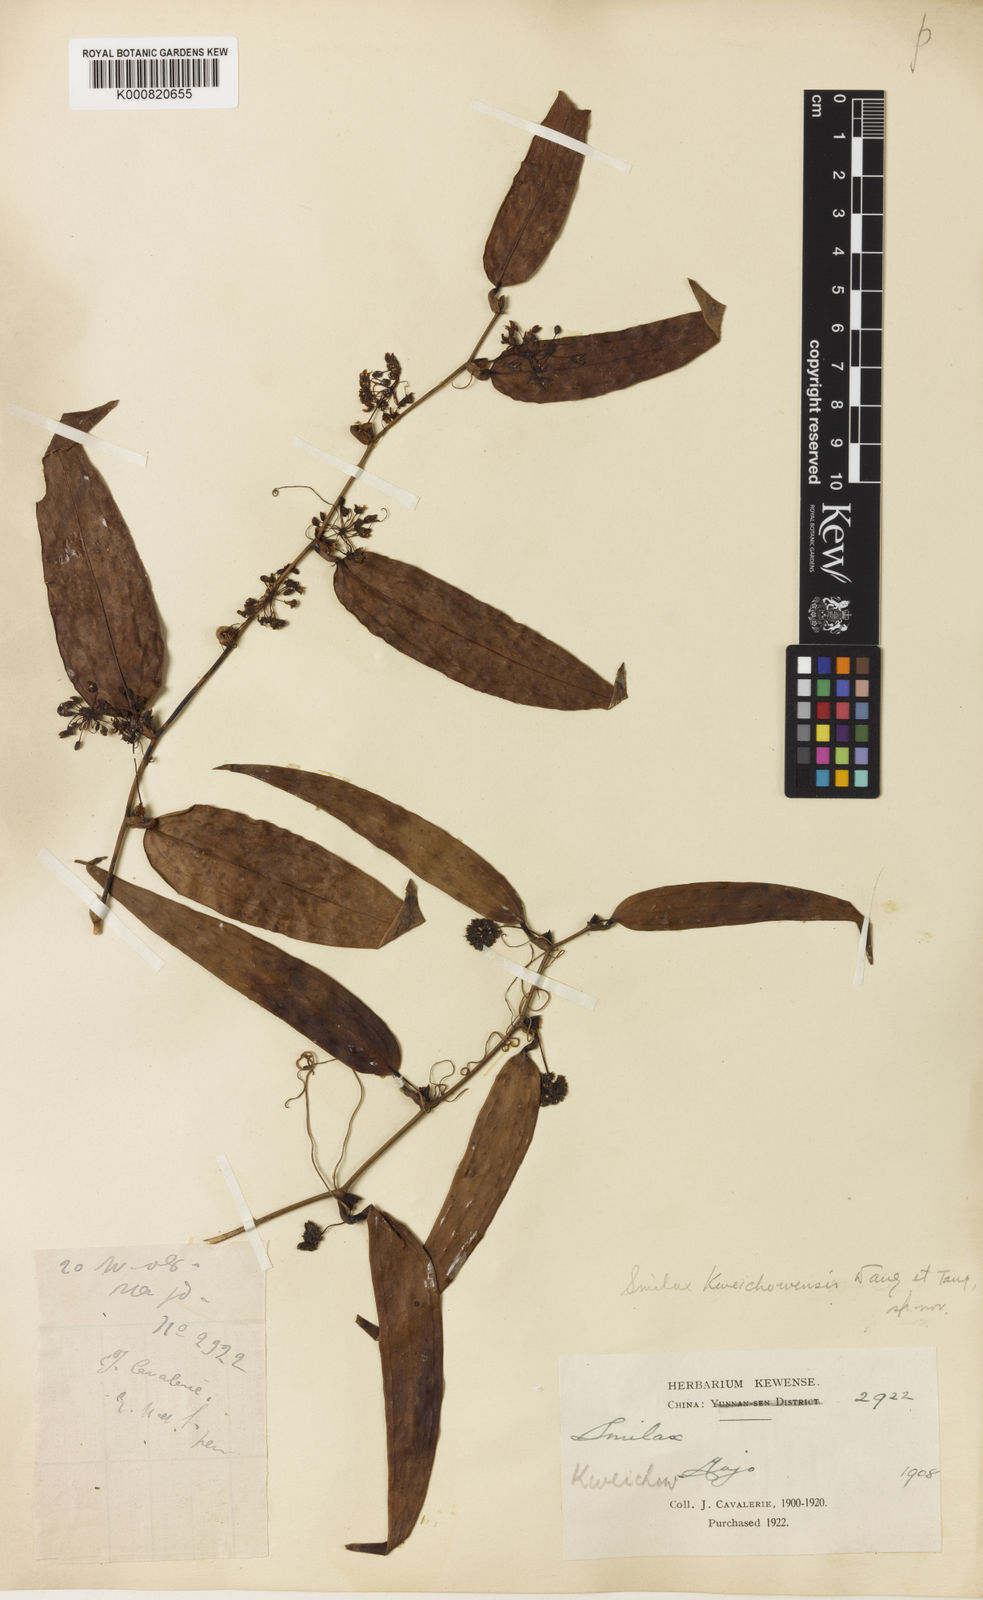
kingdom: Plantae
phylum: Tracheophyta
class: Liliopsida
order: Liliales
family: Smilacaceae
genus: Smilax
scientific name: Smilax
